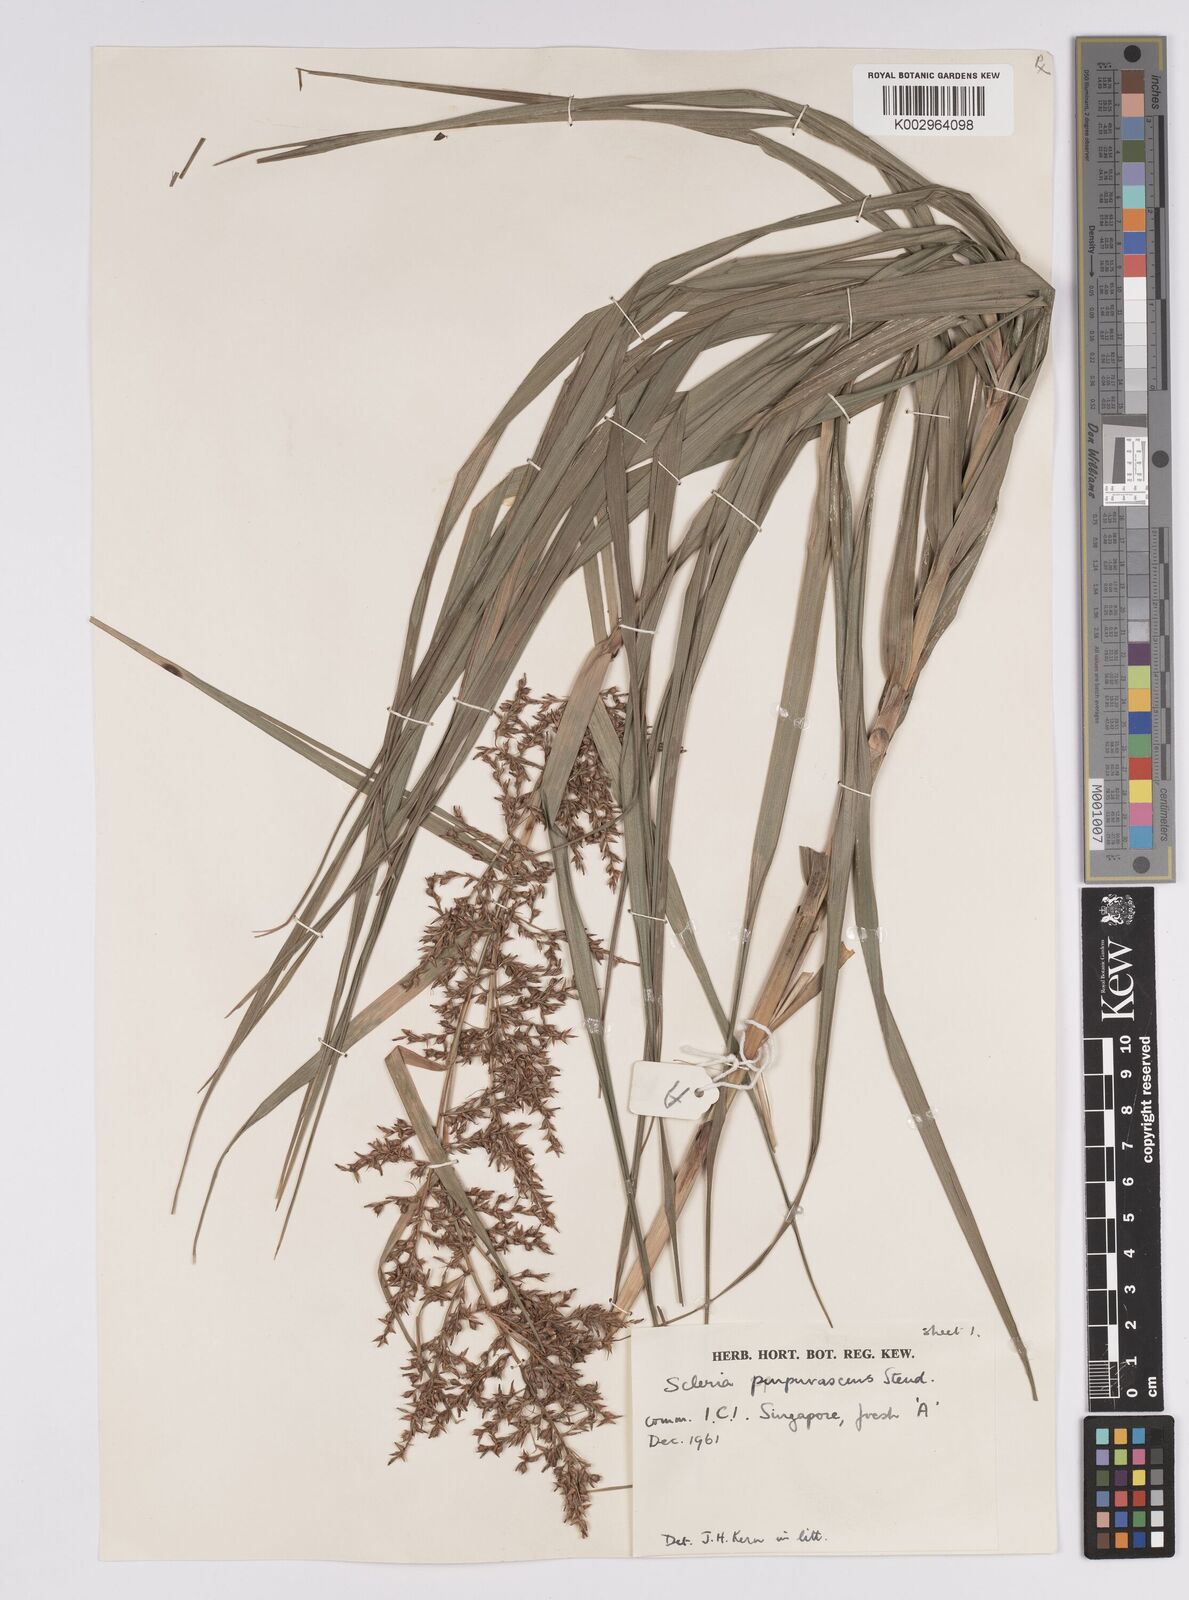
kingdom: Plantae
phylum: Tracheophyta
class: Liliopsida
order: Poales
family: Cyperaceae
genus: Scleria
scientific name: Scleria purpurascens
